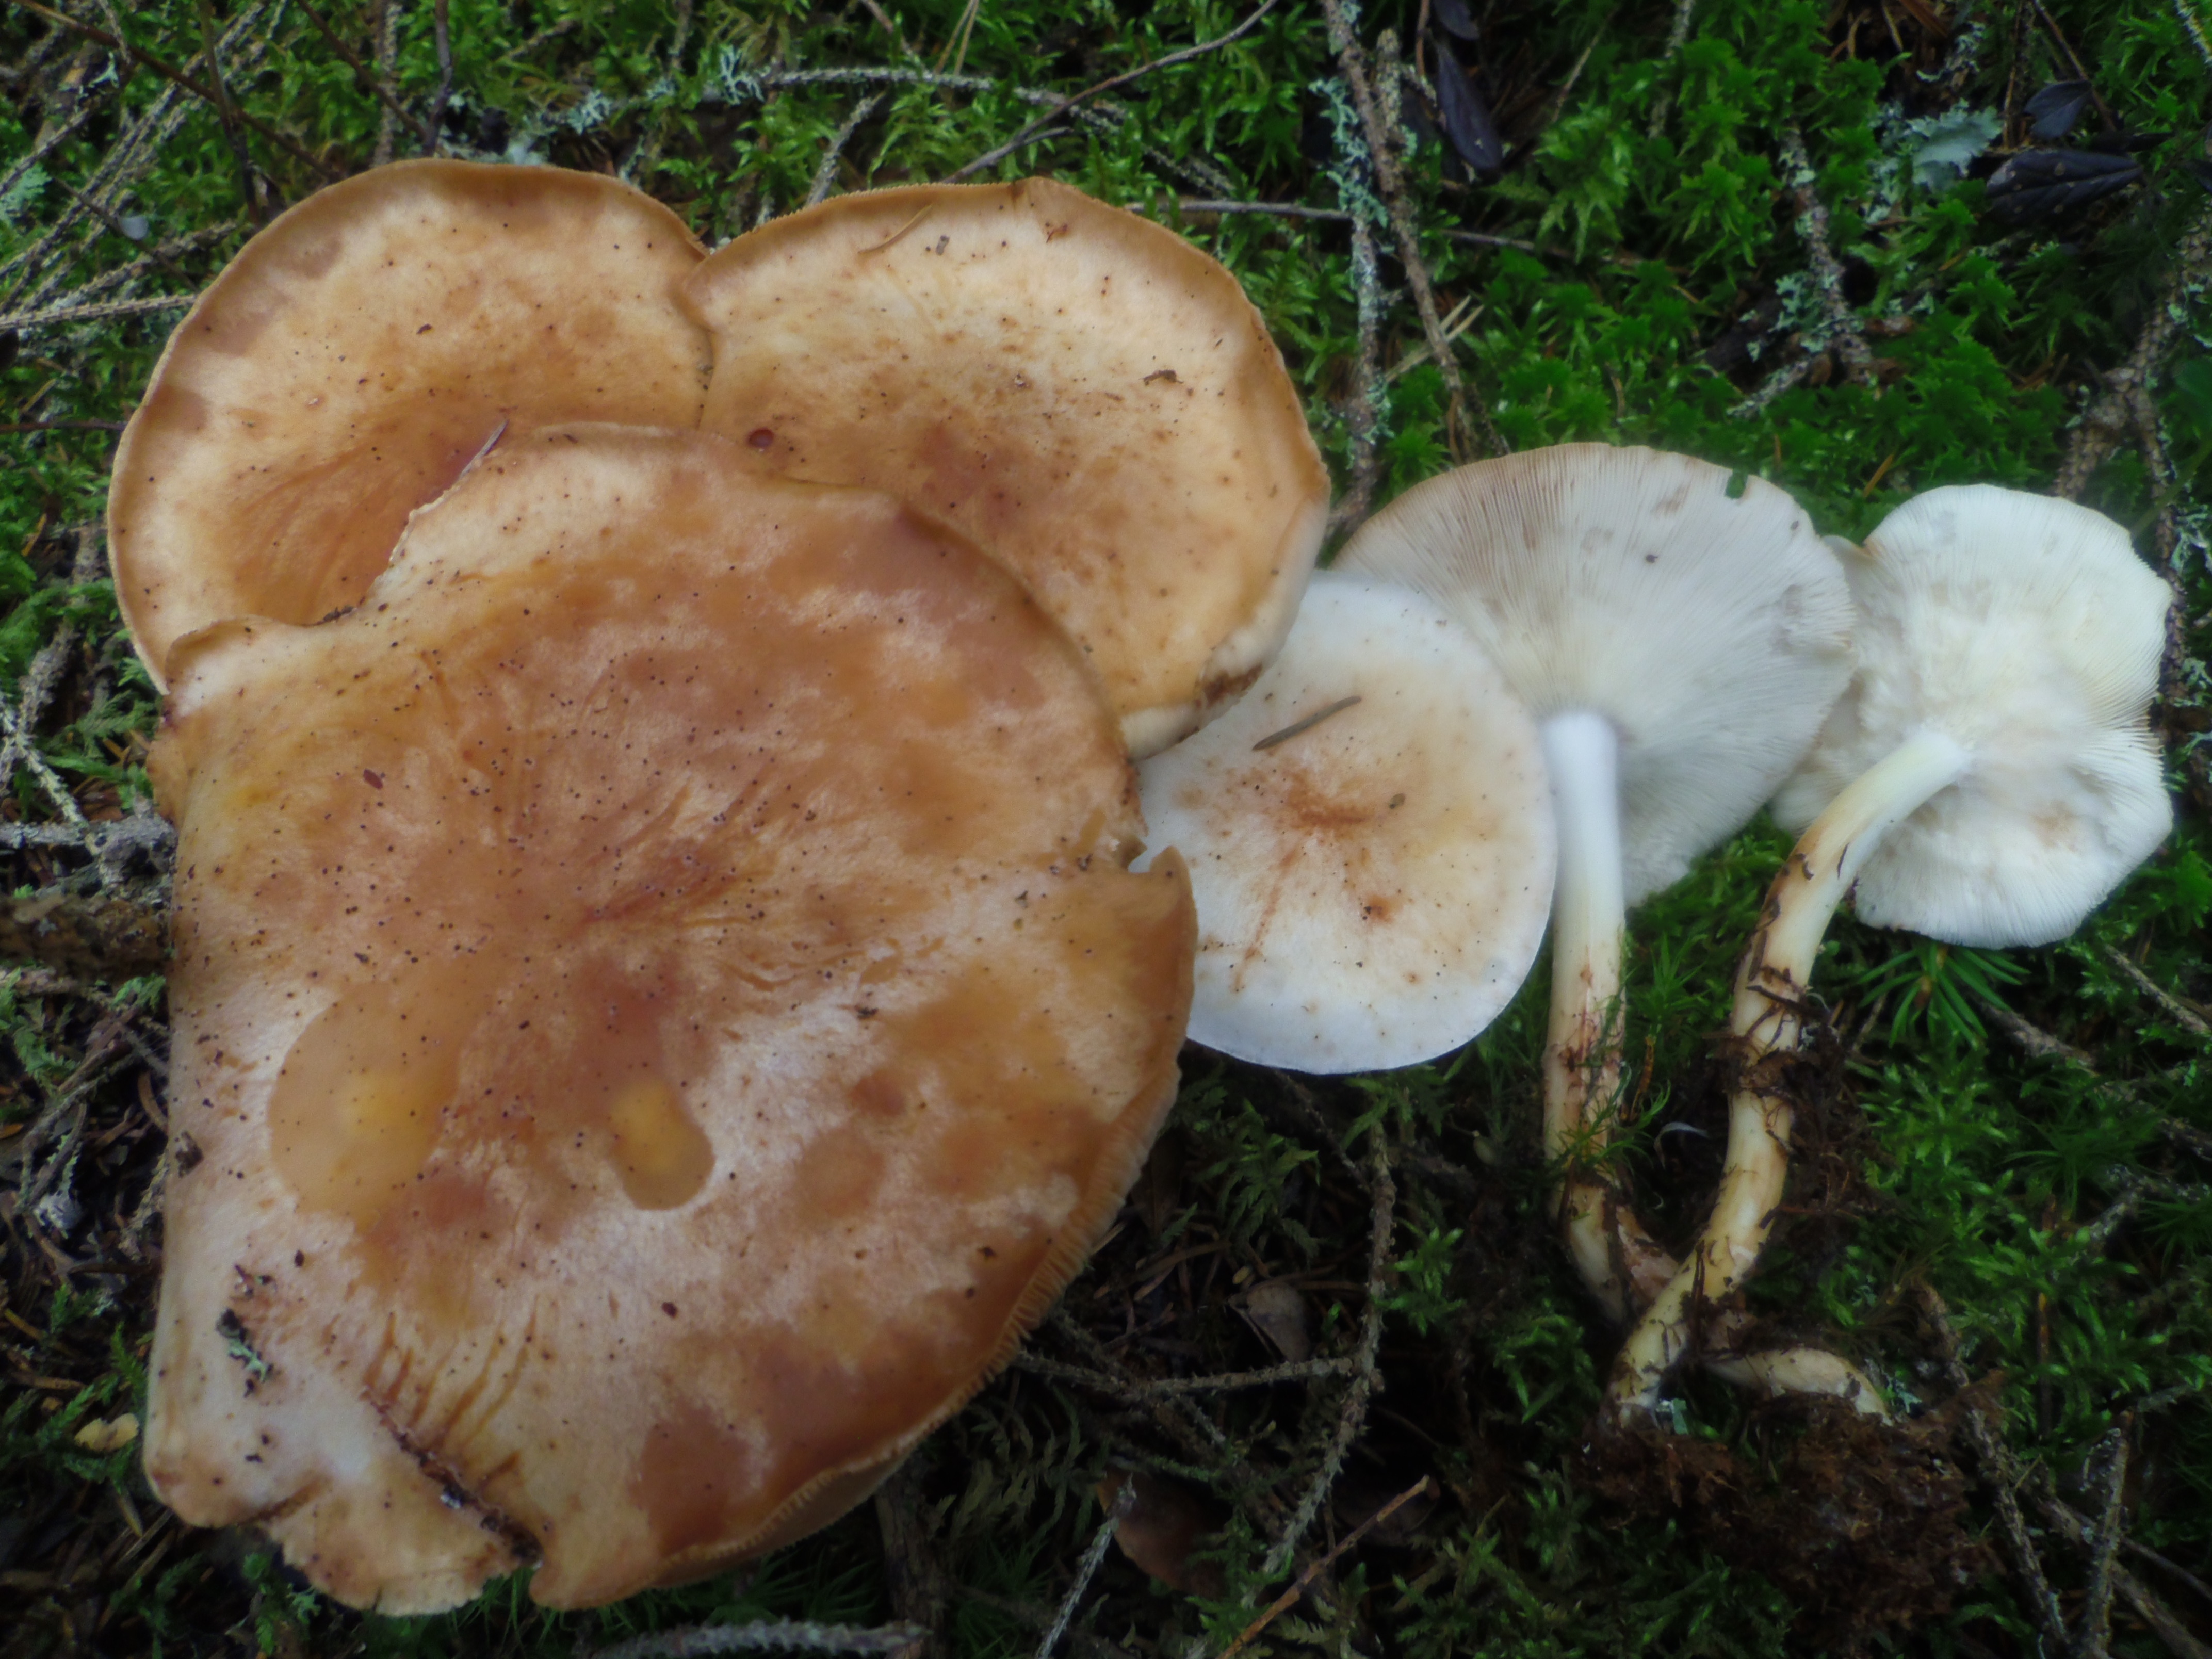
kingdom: Fungi
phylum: Basidiomycota
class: Agaricomycetes
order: Agaricales
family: Omphalotaceae
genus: Rhodocollybia
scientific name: Rhodocollybia maculata
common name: Spotted tough-shank
